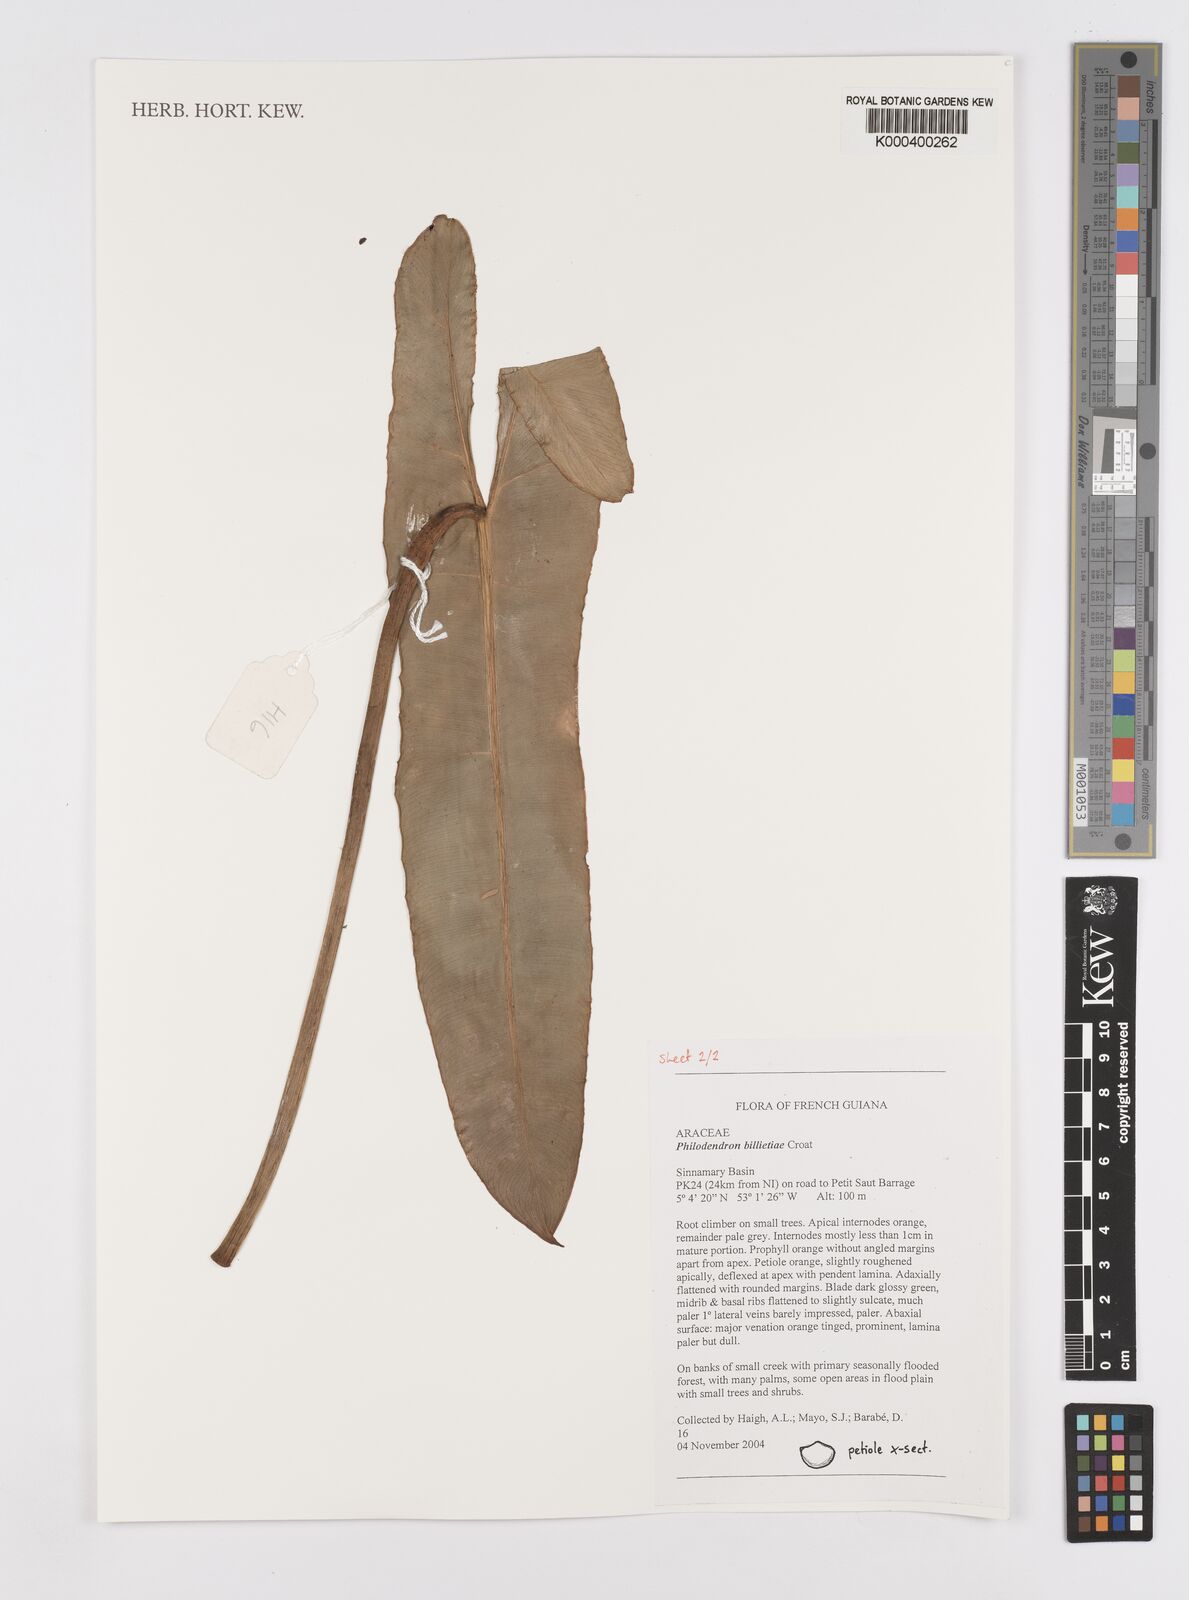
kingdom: Plantae
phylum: Tracheophyta
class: Liliopsida
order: Alismatales
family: Araceae
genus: Philodendron
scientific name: Philodendron billietiae
